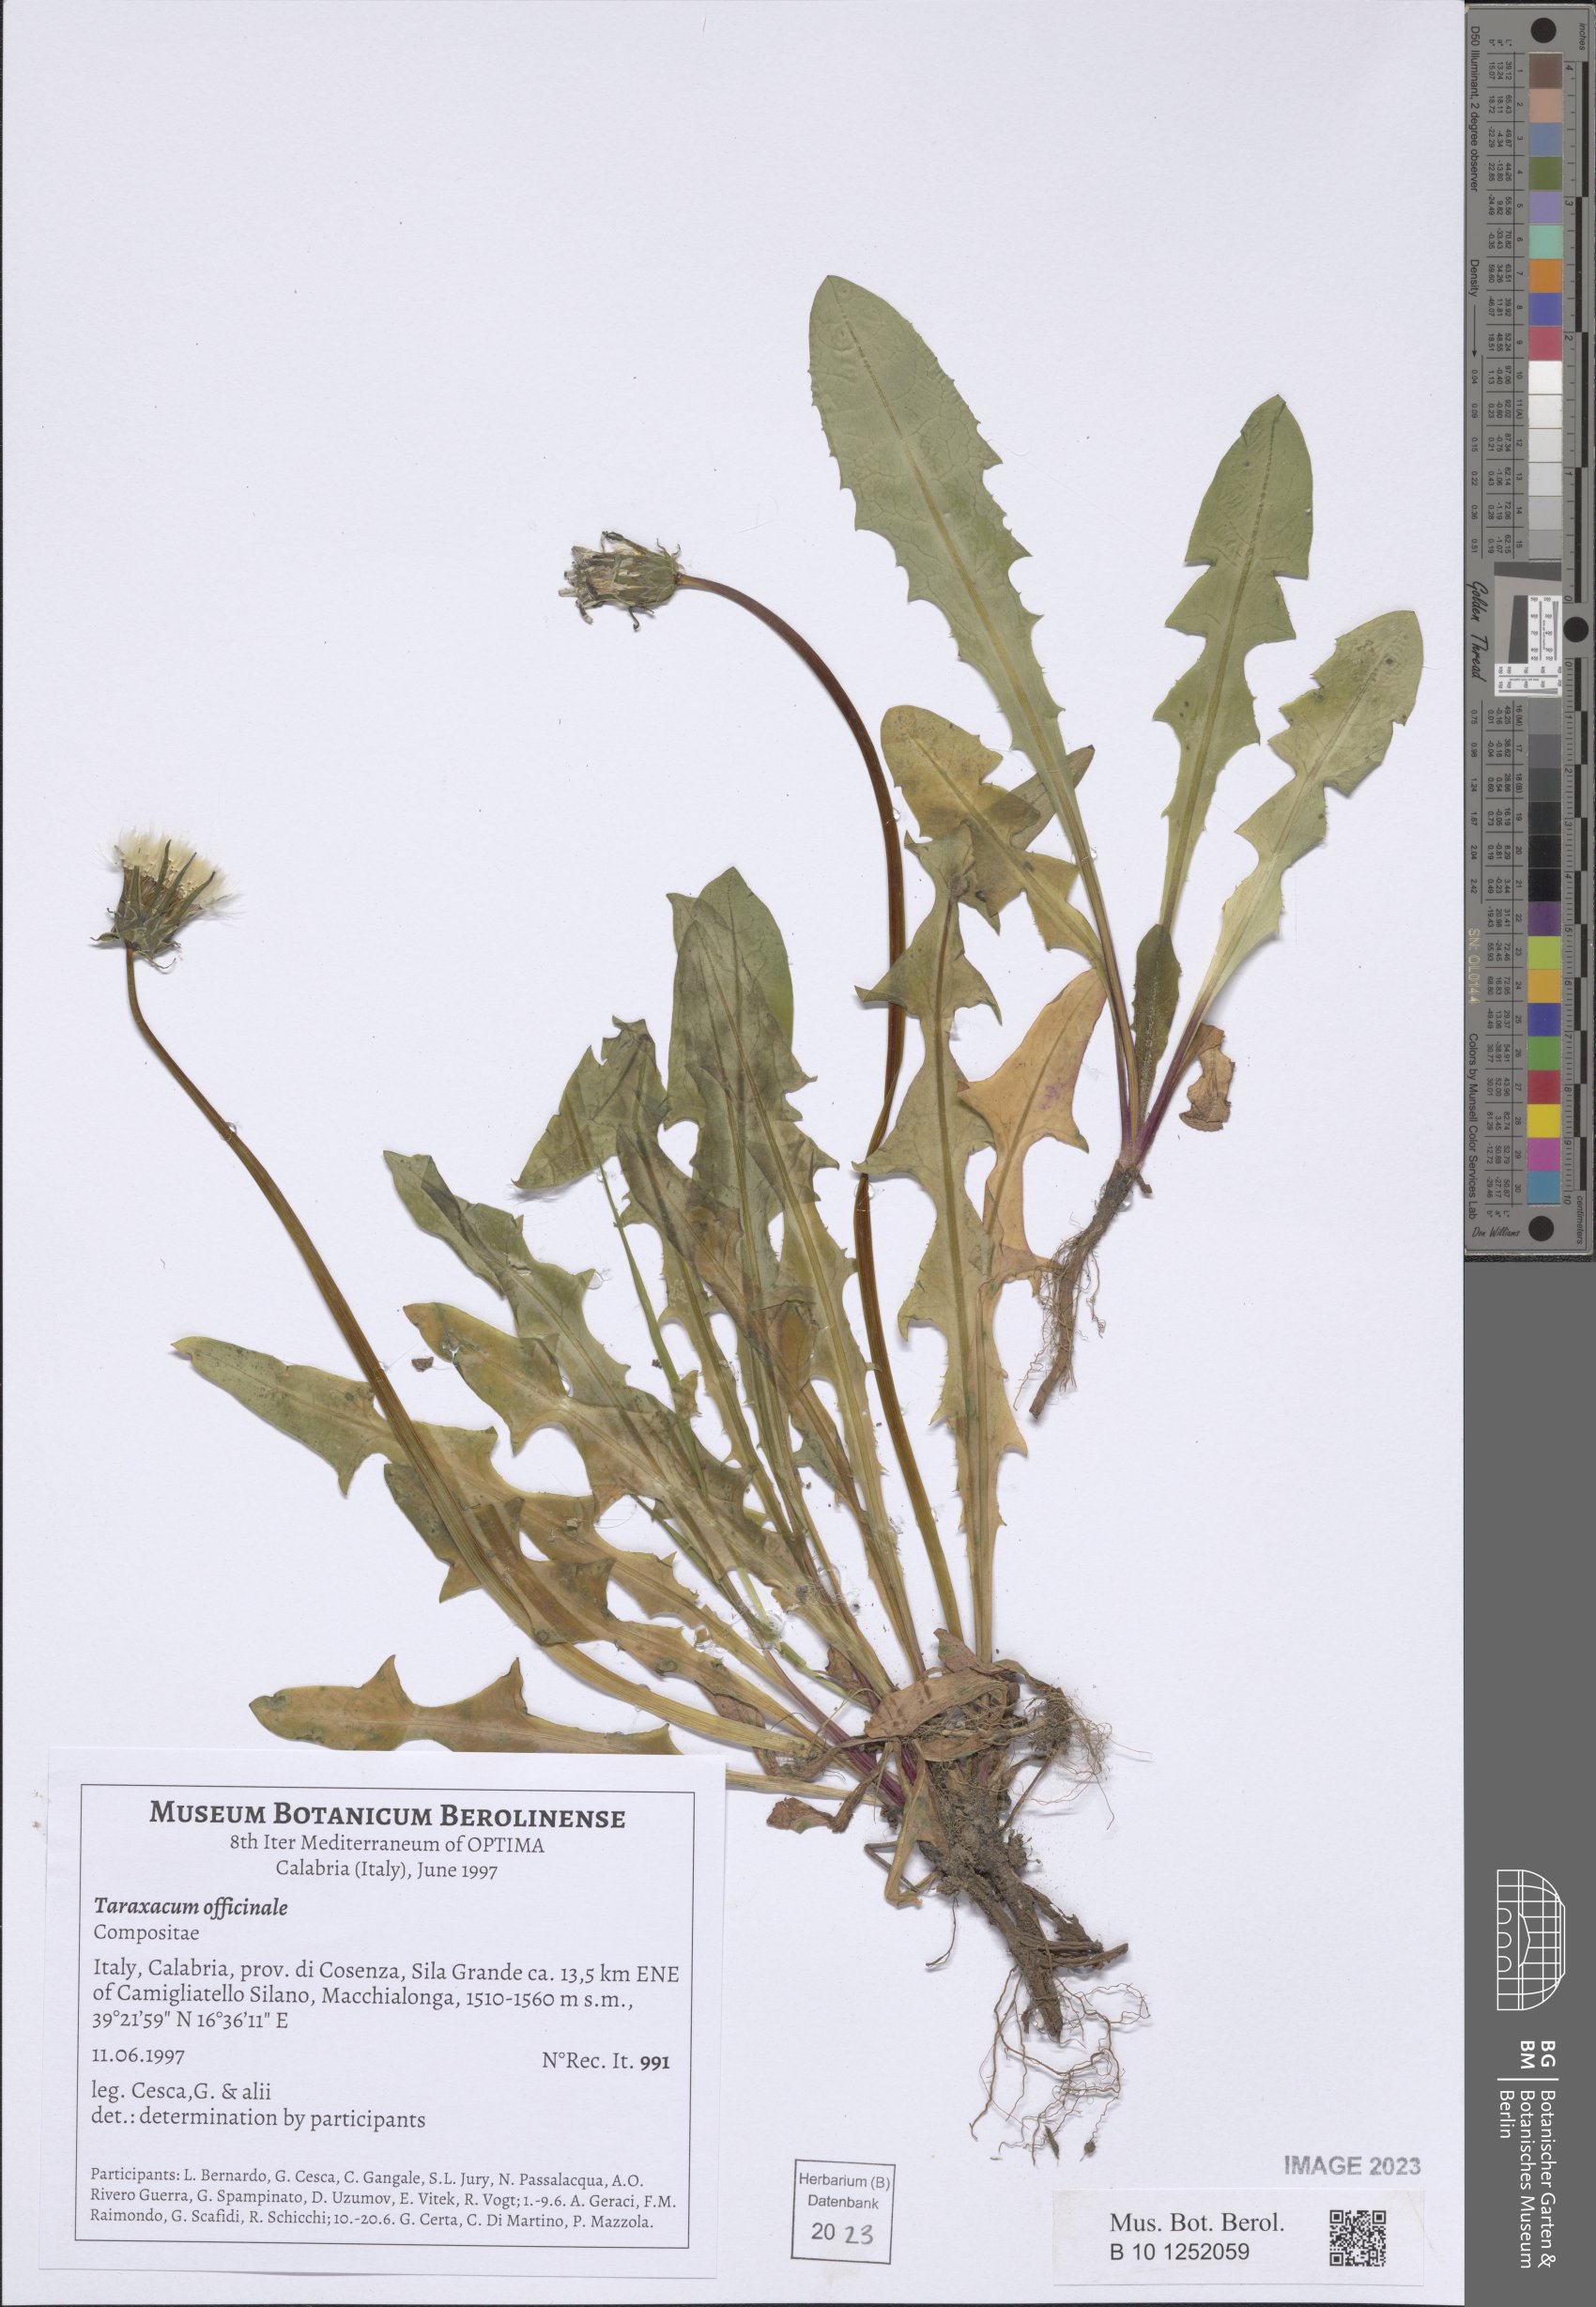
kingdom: Plantae
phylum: Tracheophyta
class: Magnoliopsida
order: Asterales
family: Asteraceae
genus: Taraxacum
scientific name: Taraxacum officinale
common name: Common dandelion
